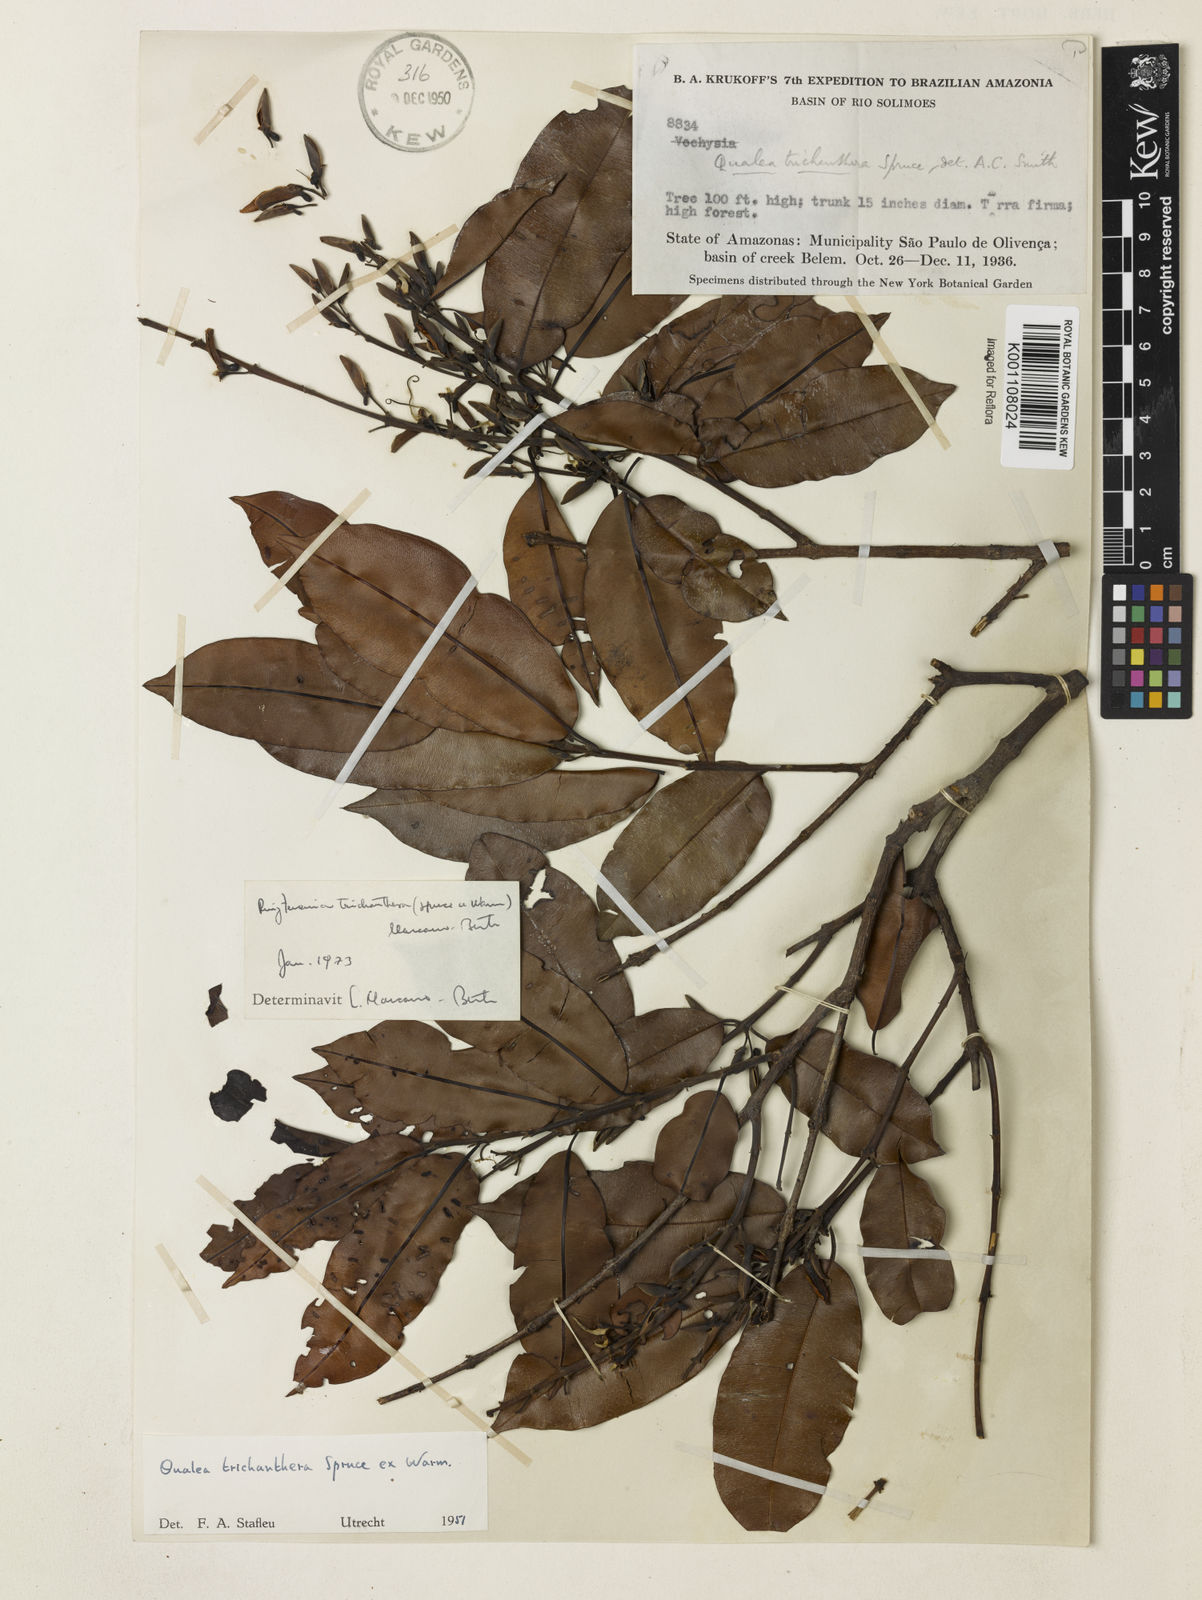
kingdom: Plantae
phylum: Tracheophyta
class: Magnoliopsida
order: Myrtales
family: Vochysiaceae
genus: Ruizterania
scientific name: Ruizterania trichanthera
